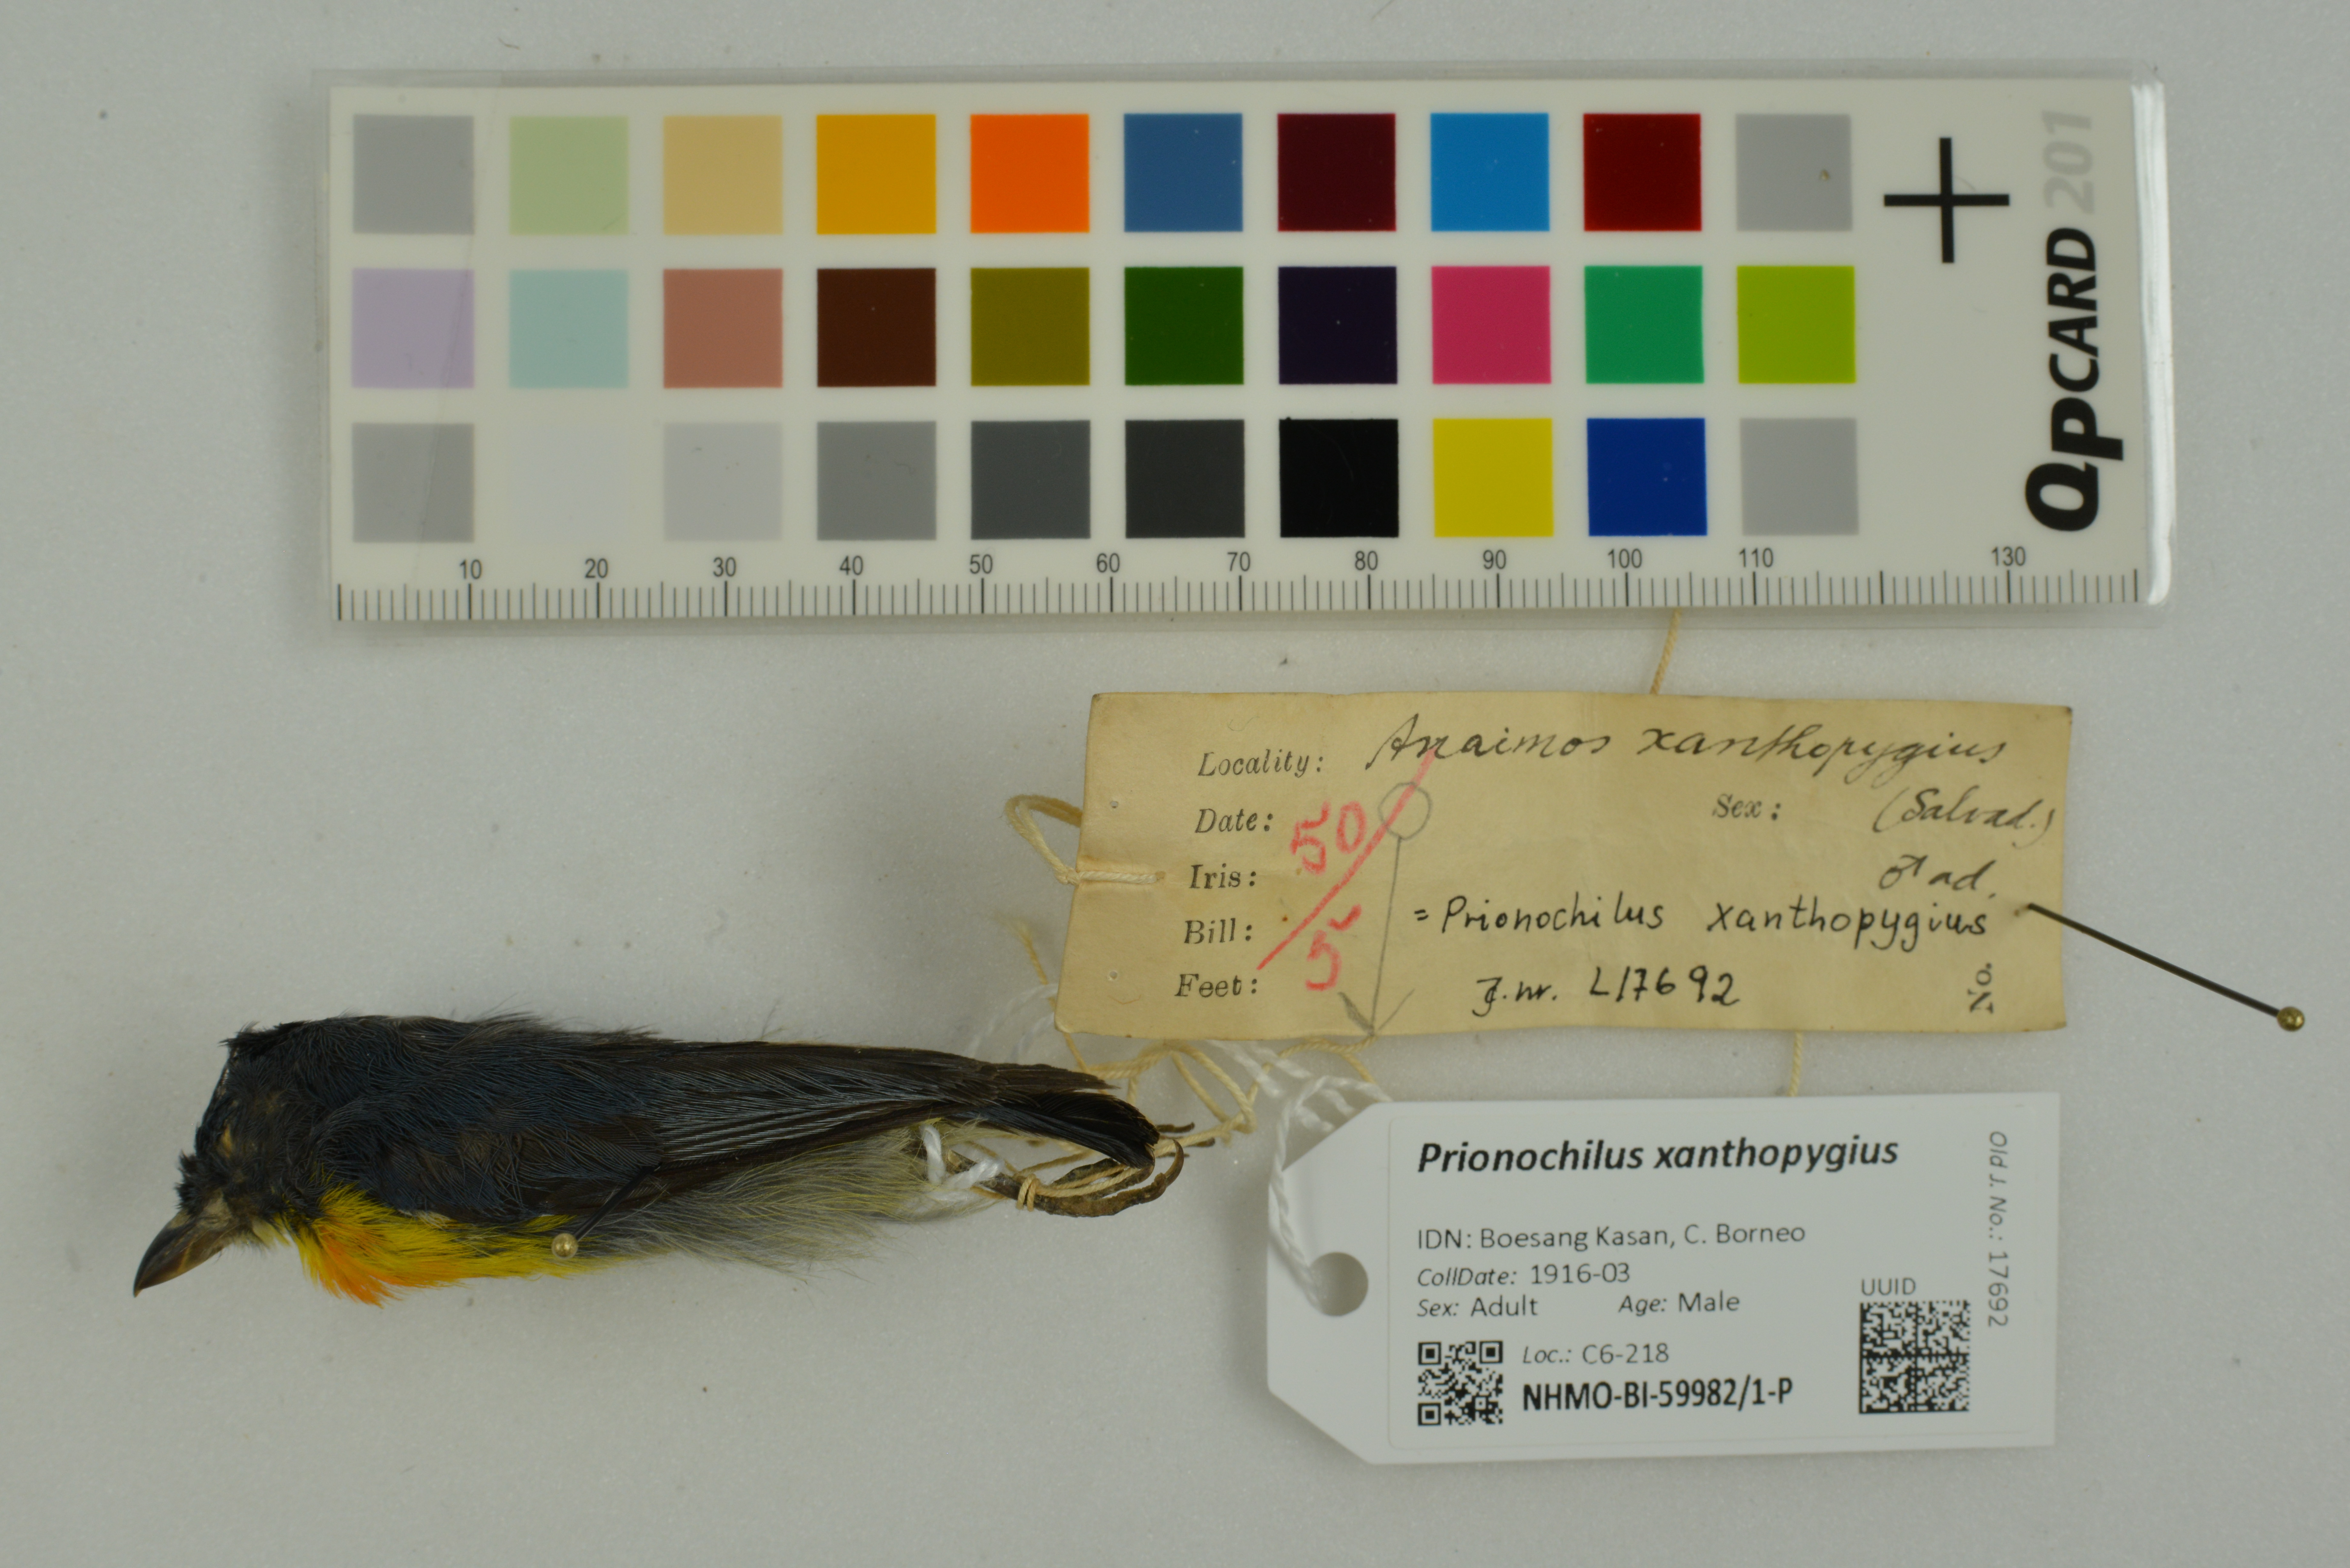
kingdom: Animalia
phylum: Chordata
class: Aves
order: Passeriformes
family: Dicaeidae
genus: Prionochilus
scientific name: Prionochilus xanthopygius
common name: Yellow-rumped flowerpecker
